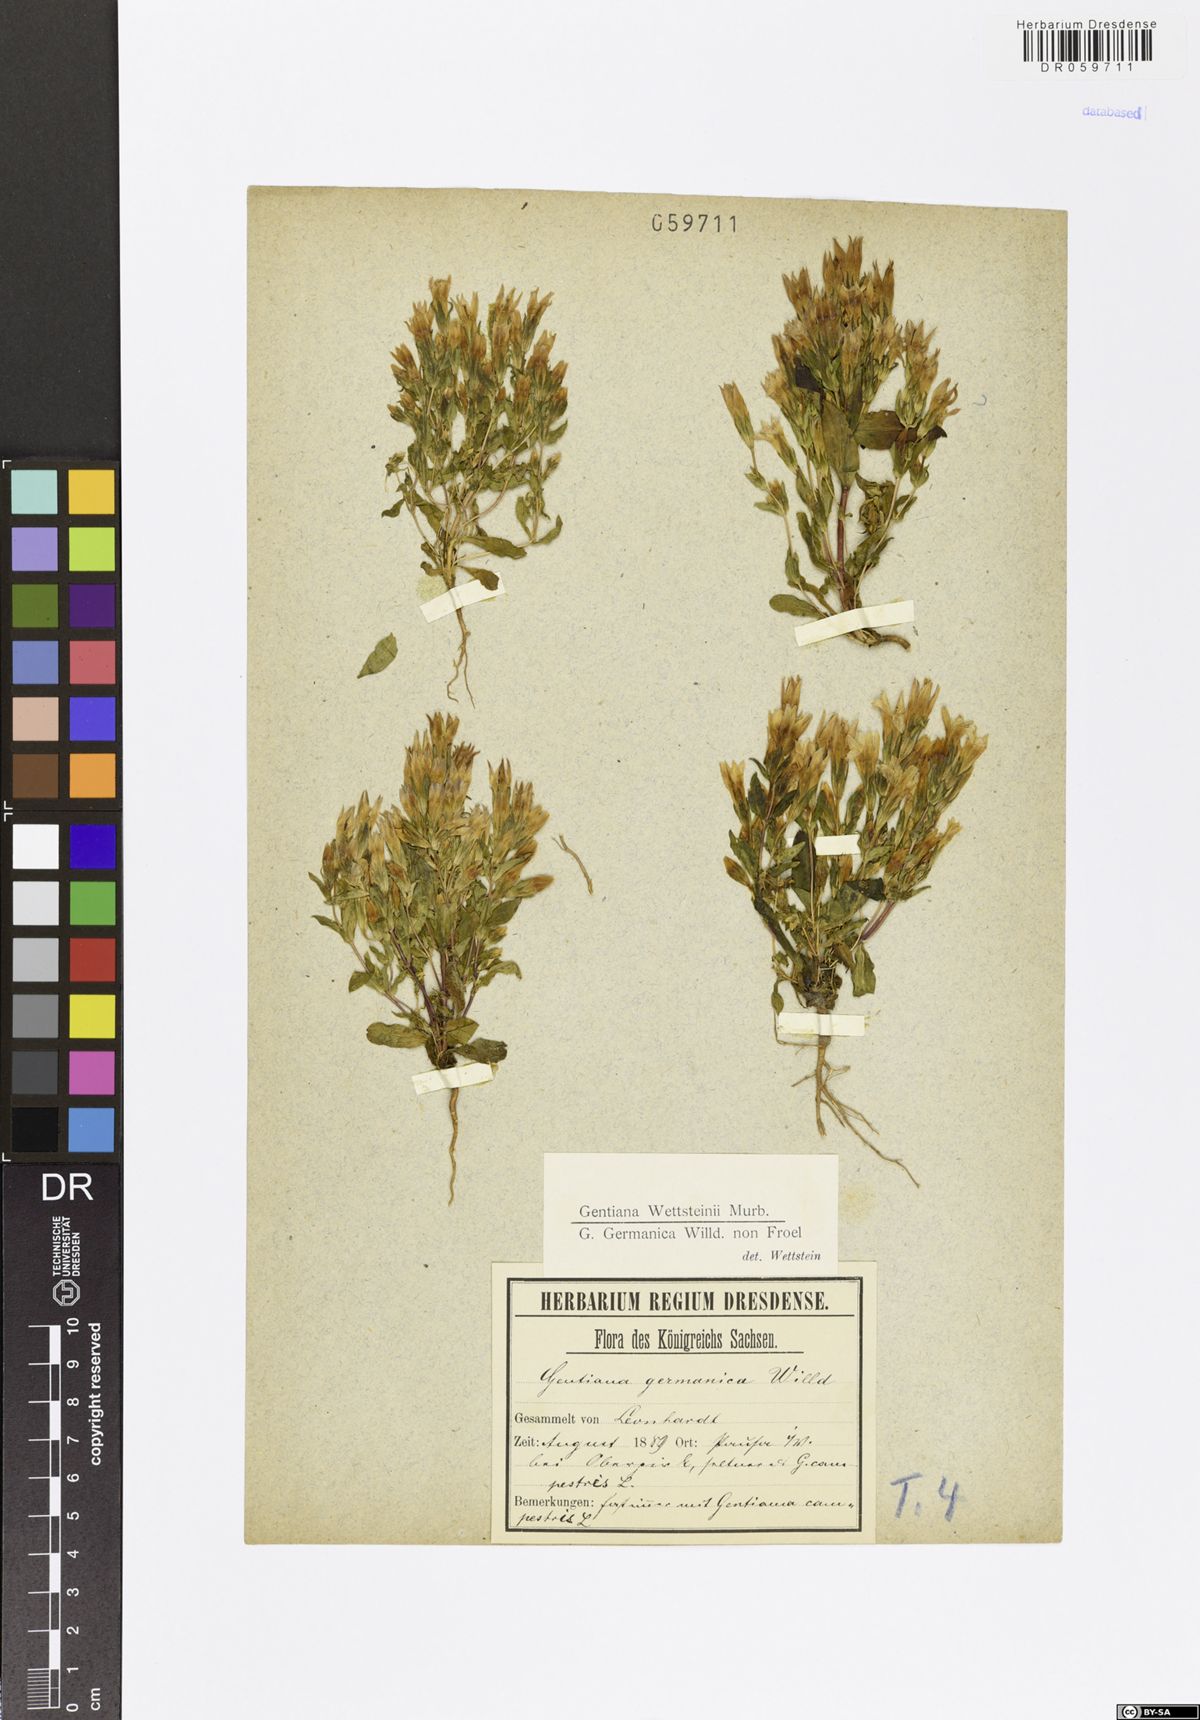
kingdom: Plantae
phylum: Tracheophyta
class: Magnoliopsida
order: Gentianales
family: Gentianaceae
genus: Gentianella
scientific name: Gentianella germanica
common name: Chiltern-gentian
